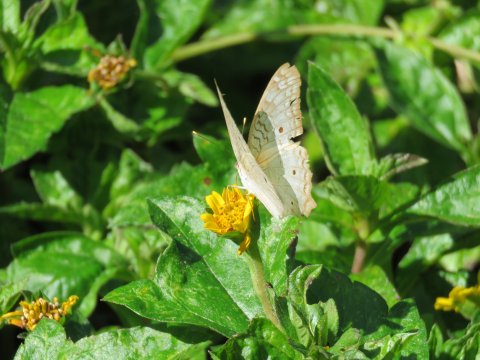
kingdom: Animalia
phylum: Arthropoda
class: Insecta
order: Lepidoptera
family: Nymphalidae
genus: Anartia
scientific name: Anartia jatrophae
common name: White Peacock
